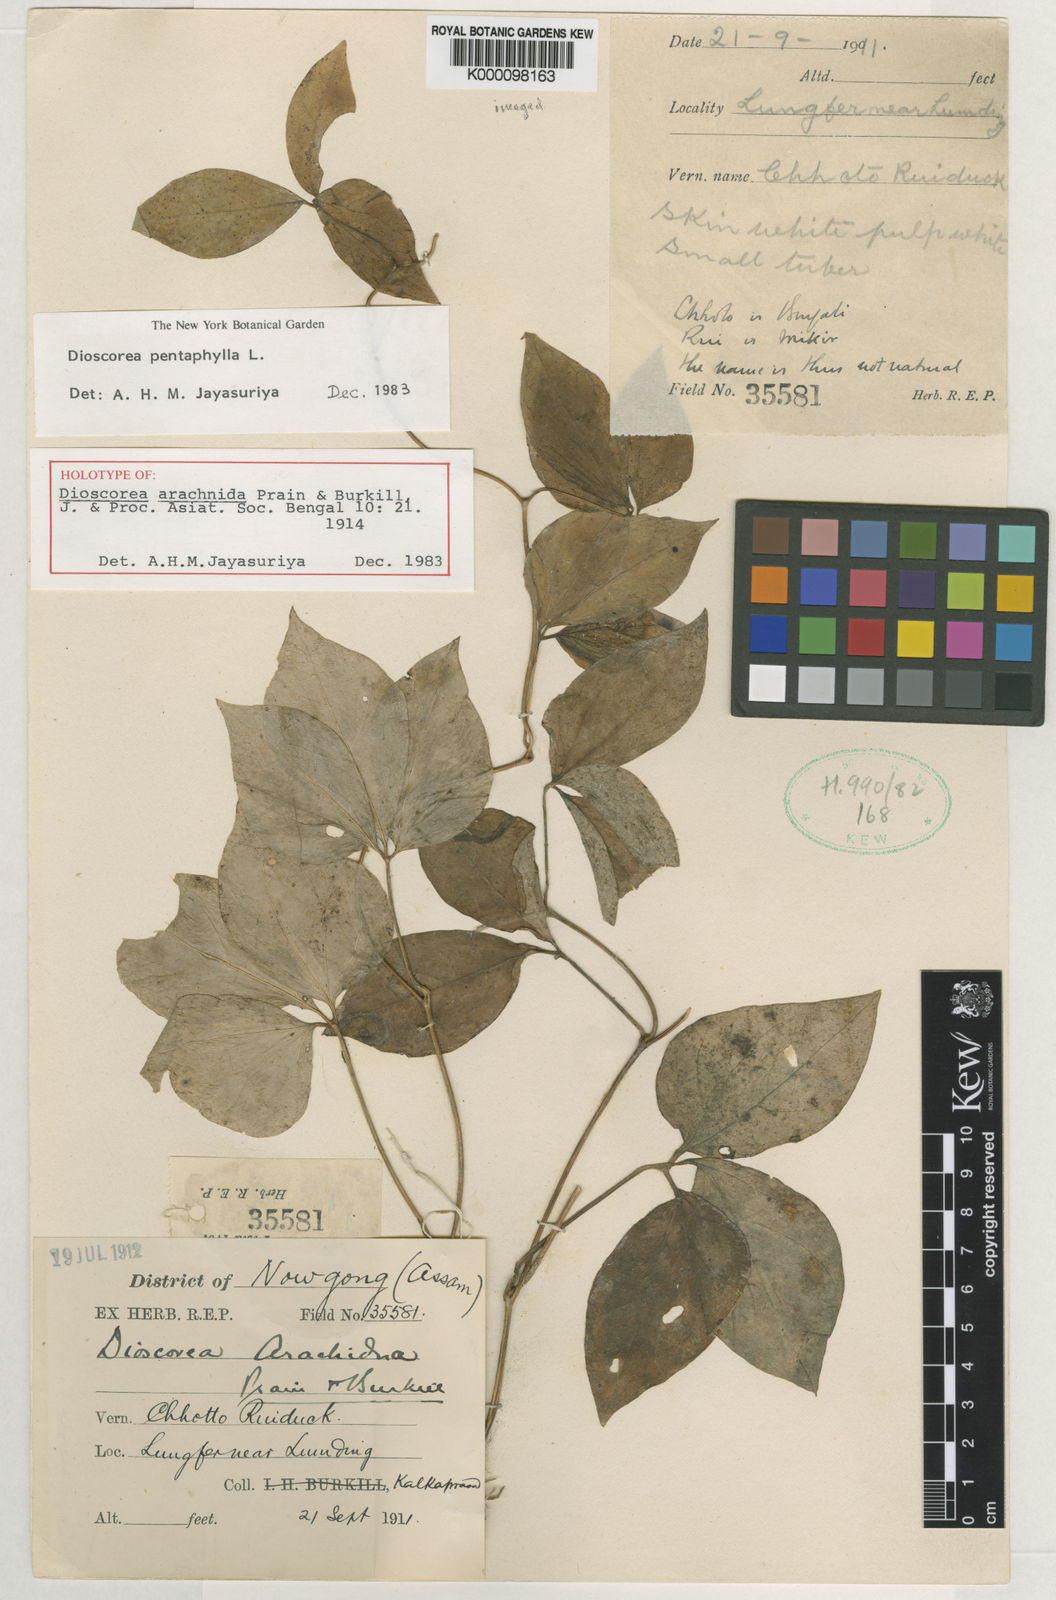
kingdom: Plantae
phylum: Tracheophyta
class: Liliopsida
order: Dioscoreales
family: Dioscoreaceae
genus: Dioscorea
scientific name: Dioscorea arachidna
